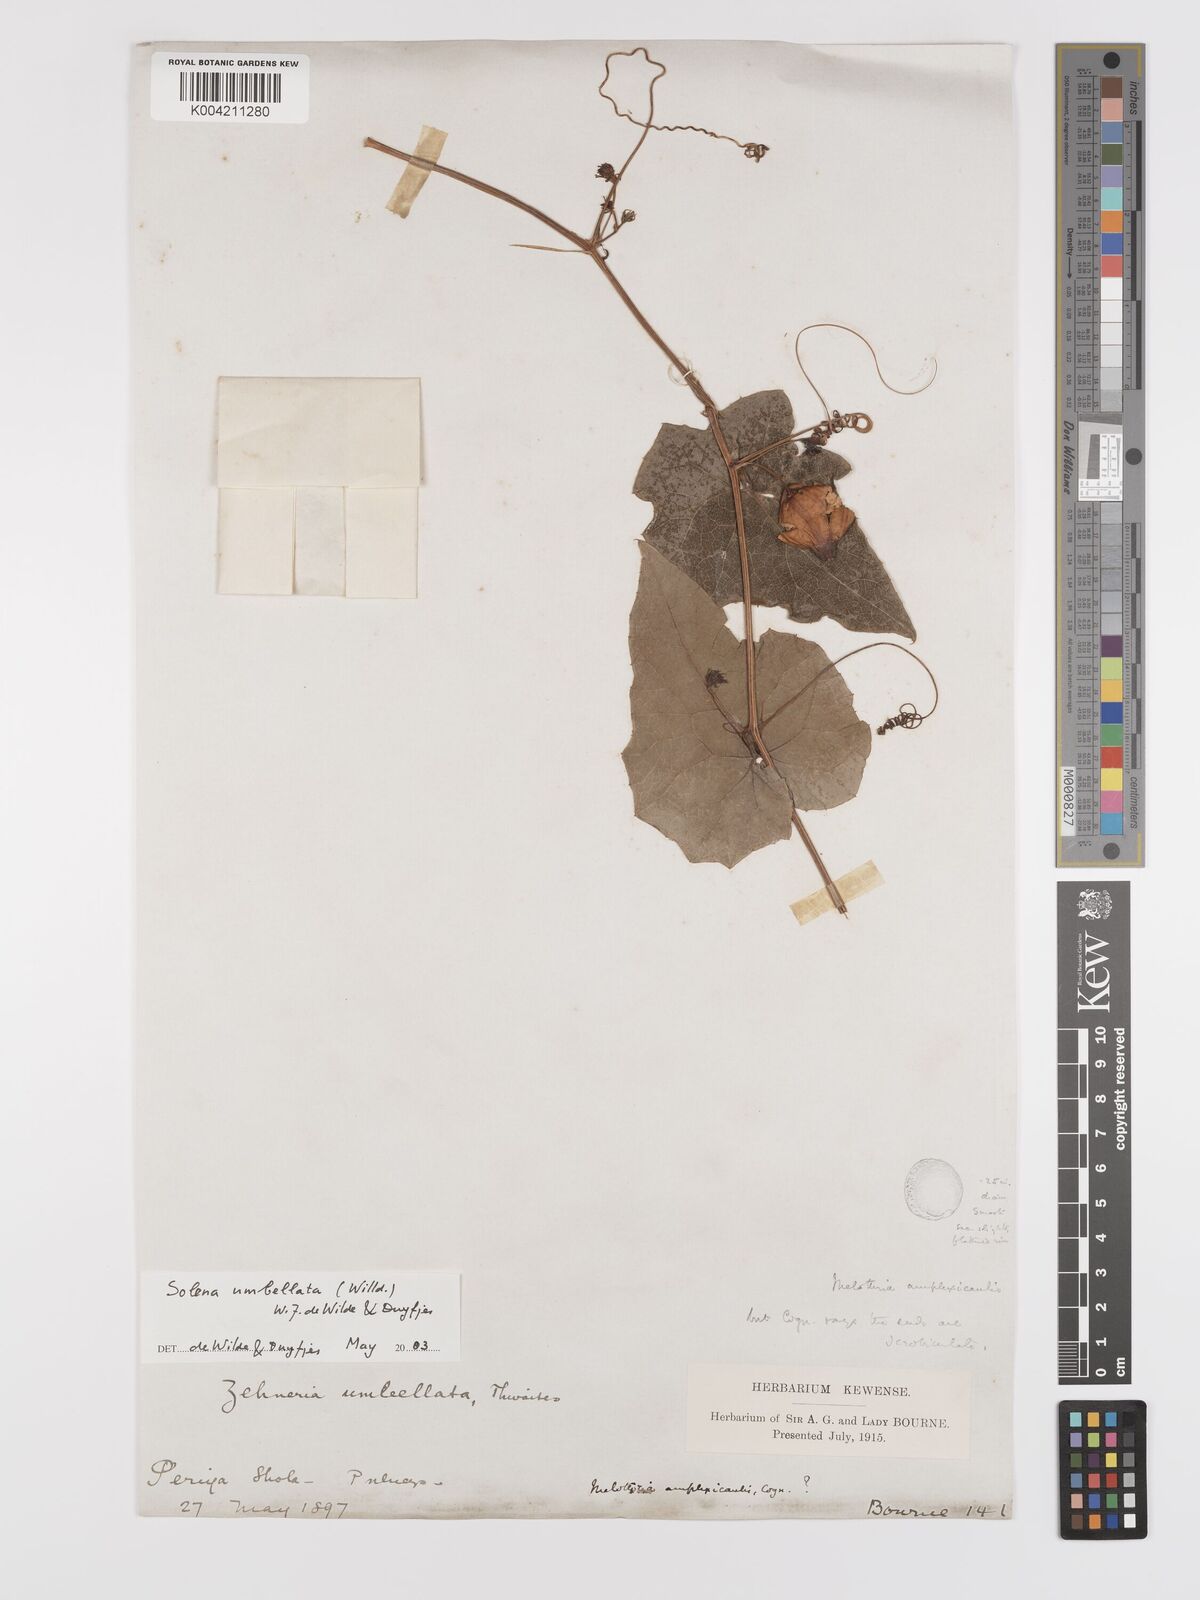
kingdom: Plantae
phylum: Tracheophyta
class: Magnoliopsida
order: Cucurbitales
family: Cucurbitaceae
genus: Solena
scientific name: Solena amplexicaulis
